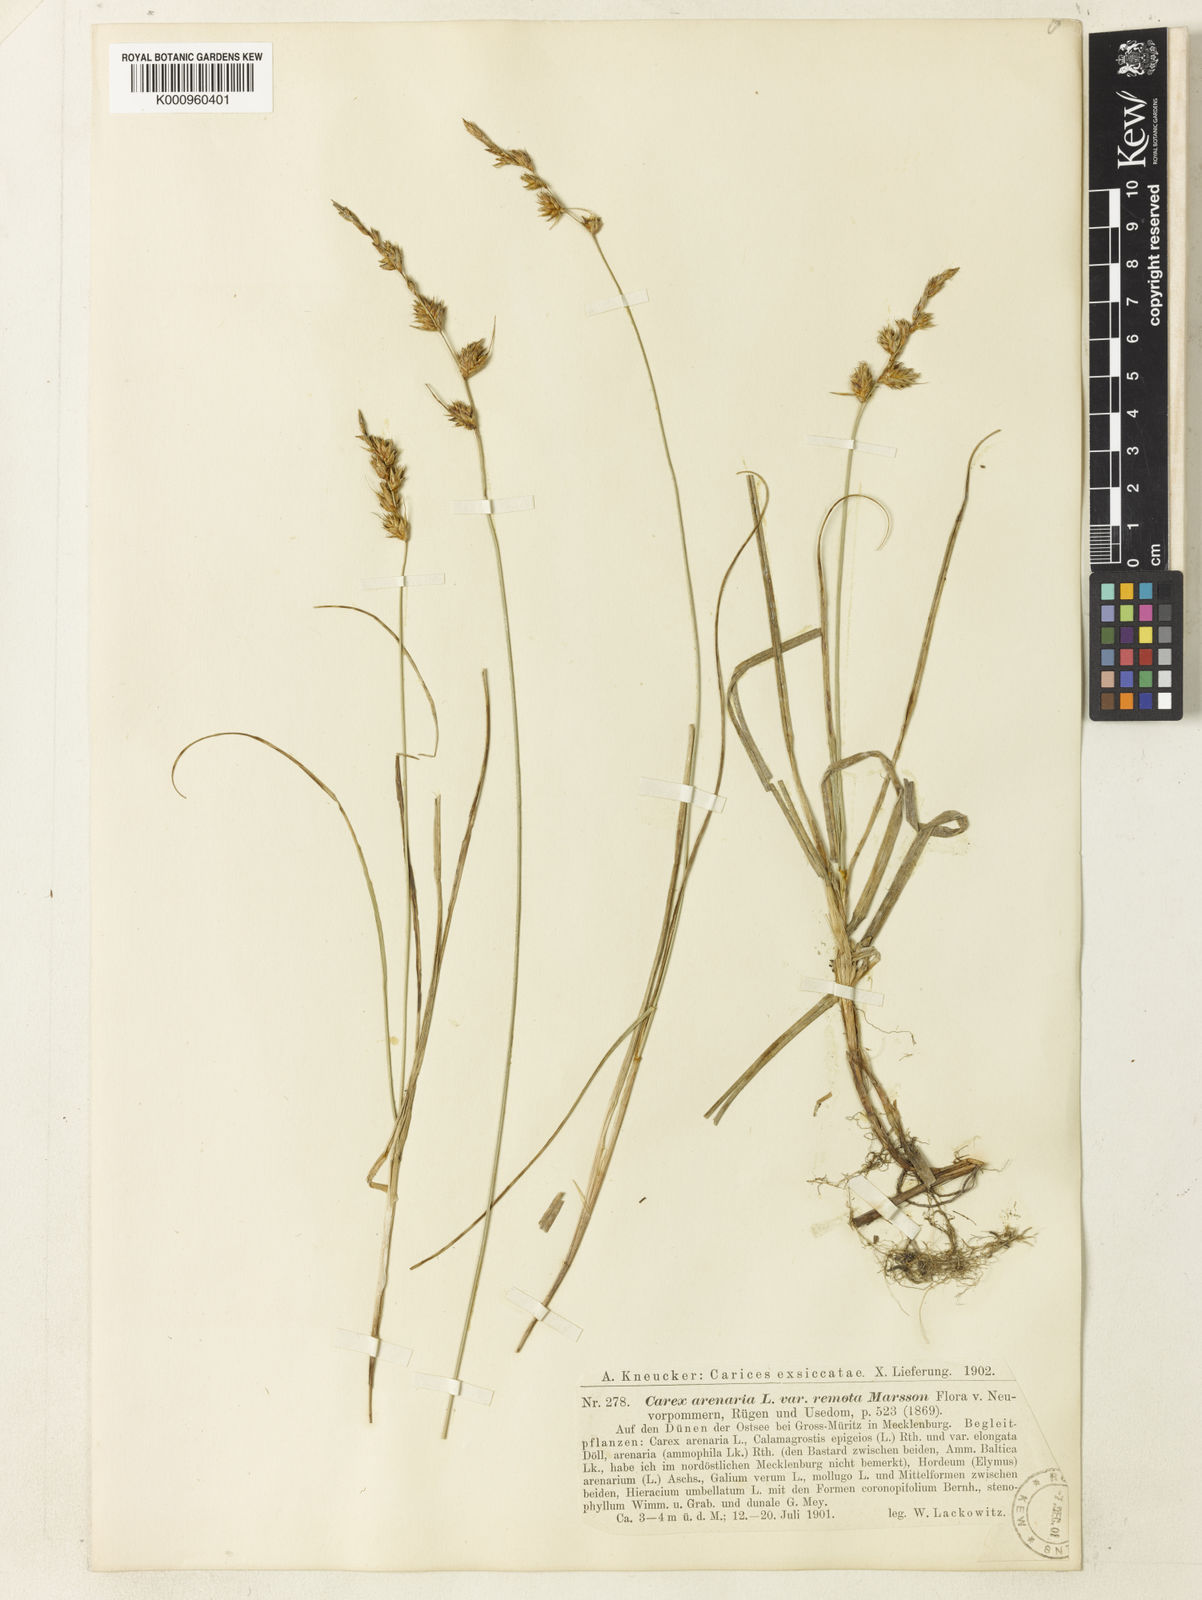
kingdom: Plantae
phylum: Tracheophyta
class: Liliopsida
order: Poales
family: Cyperaceae
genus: Carex
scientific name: Carex arenaria
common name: Sand sedge
